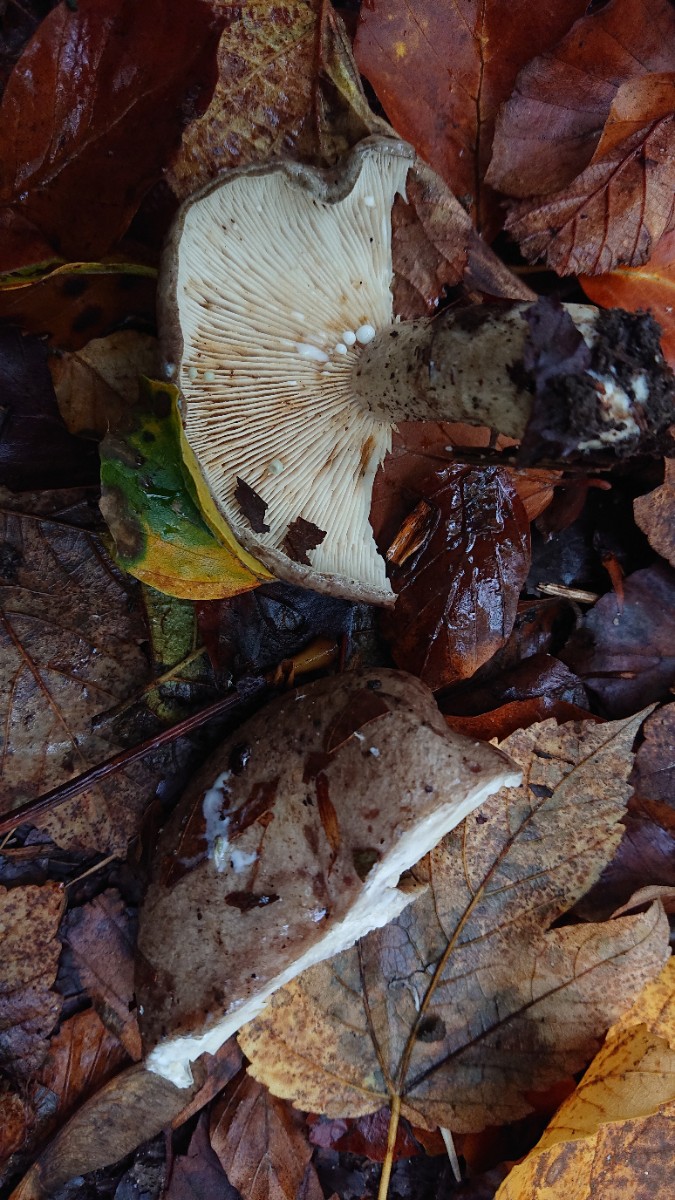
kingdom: Fungi
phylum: Basidiomycota
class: Agaricomycetes
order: Russulales
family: Russulaceae
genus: Lactarius
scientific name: Lactarius blennius
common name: dråbeplettet mælkehat
